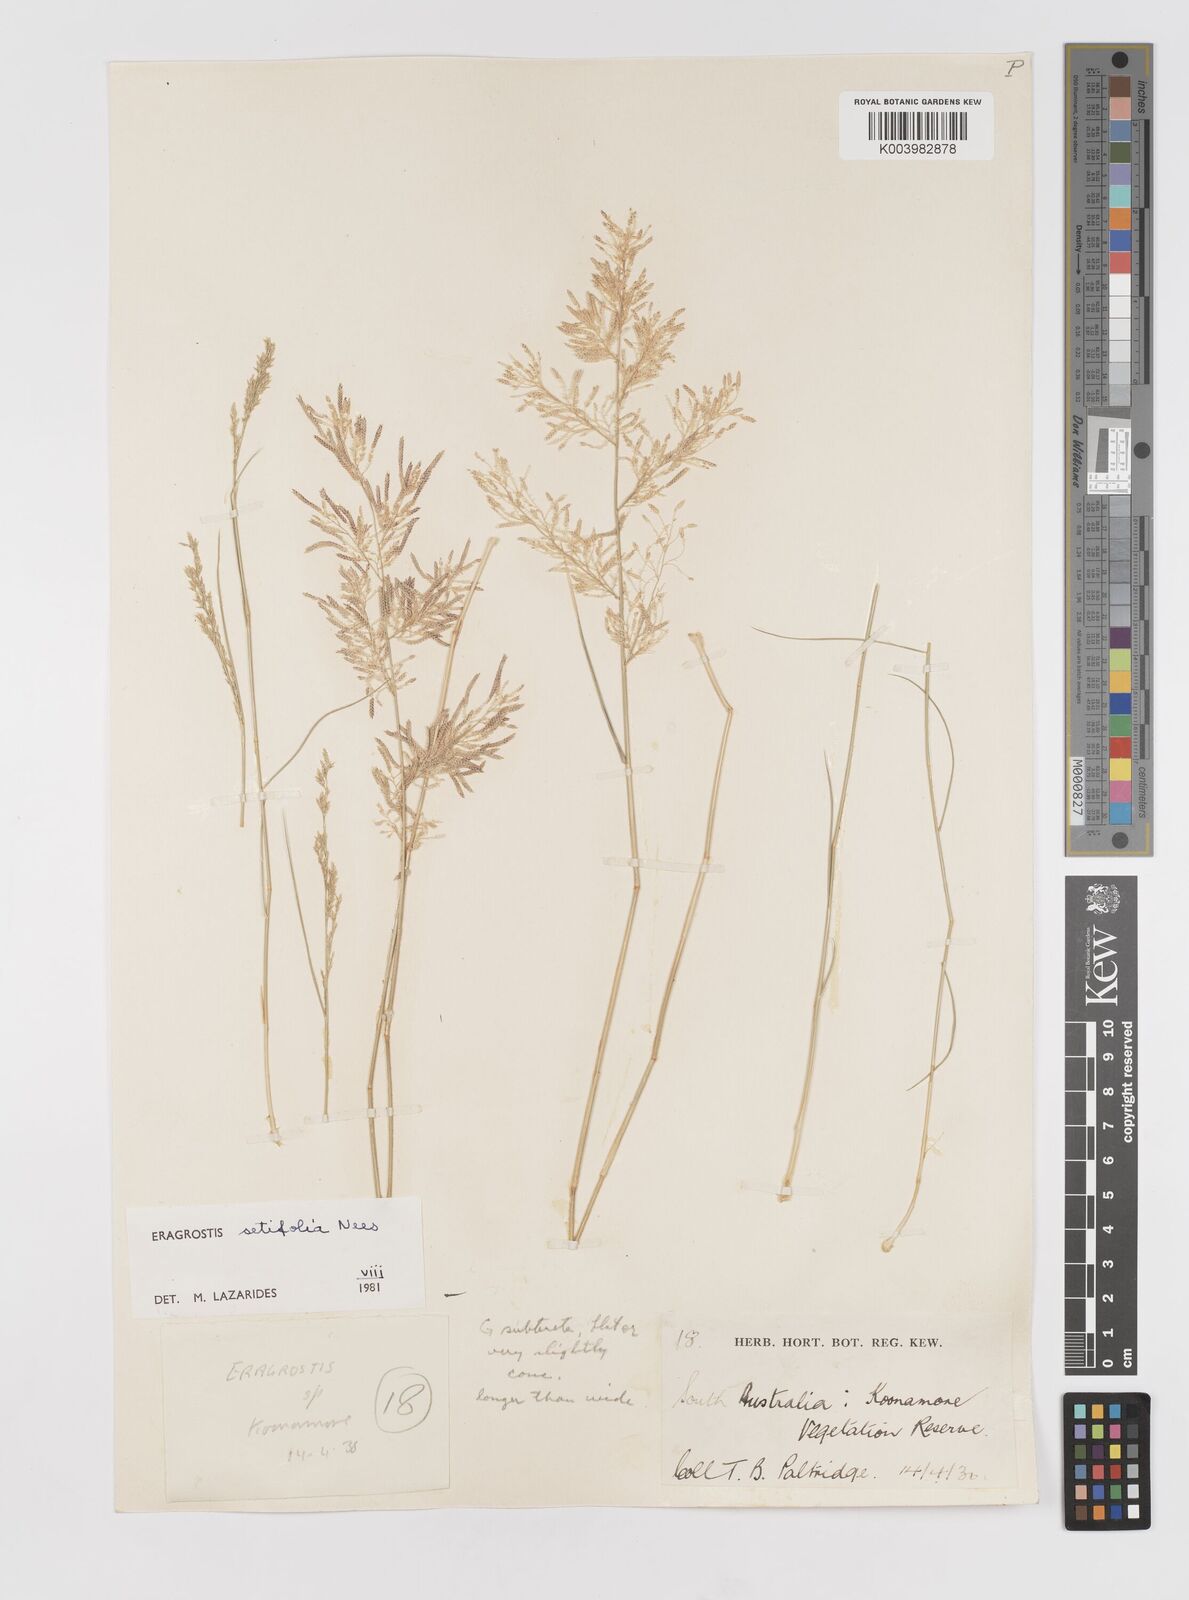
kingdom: Plantae
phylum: Tracheophyta
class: Liliopsida
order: Poales
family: Poaceae
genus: Eragrostis
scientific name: Eragrostis setifolia
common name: Bristleleaf lovegrass
